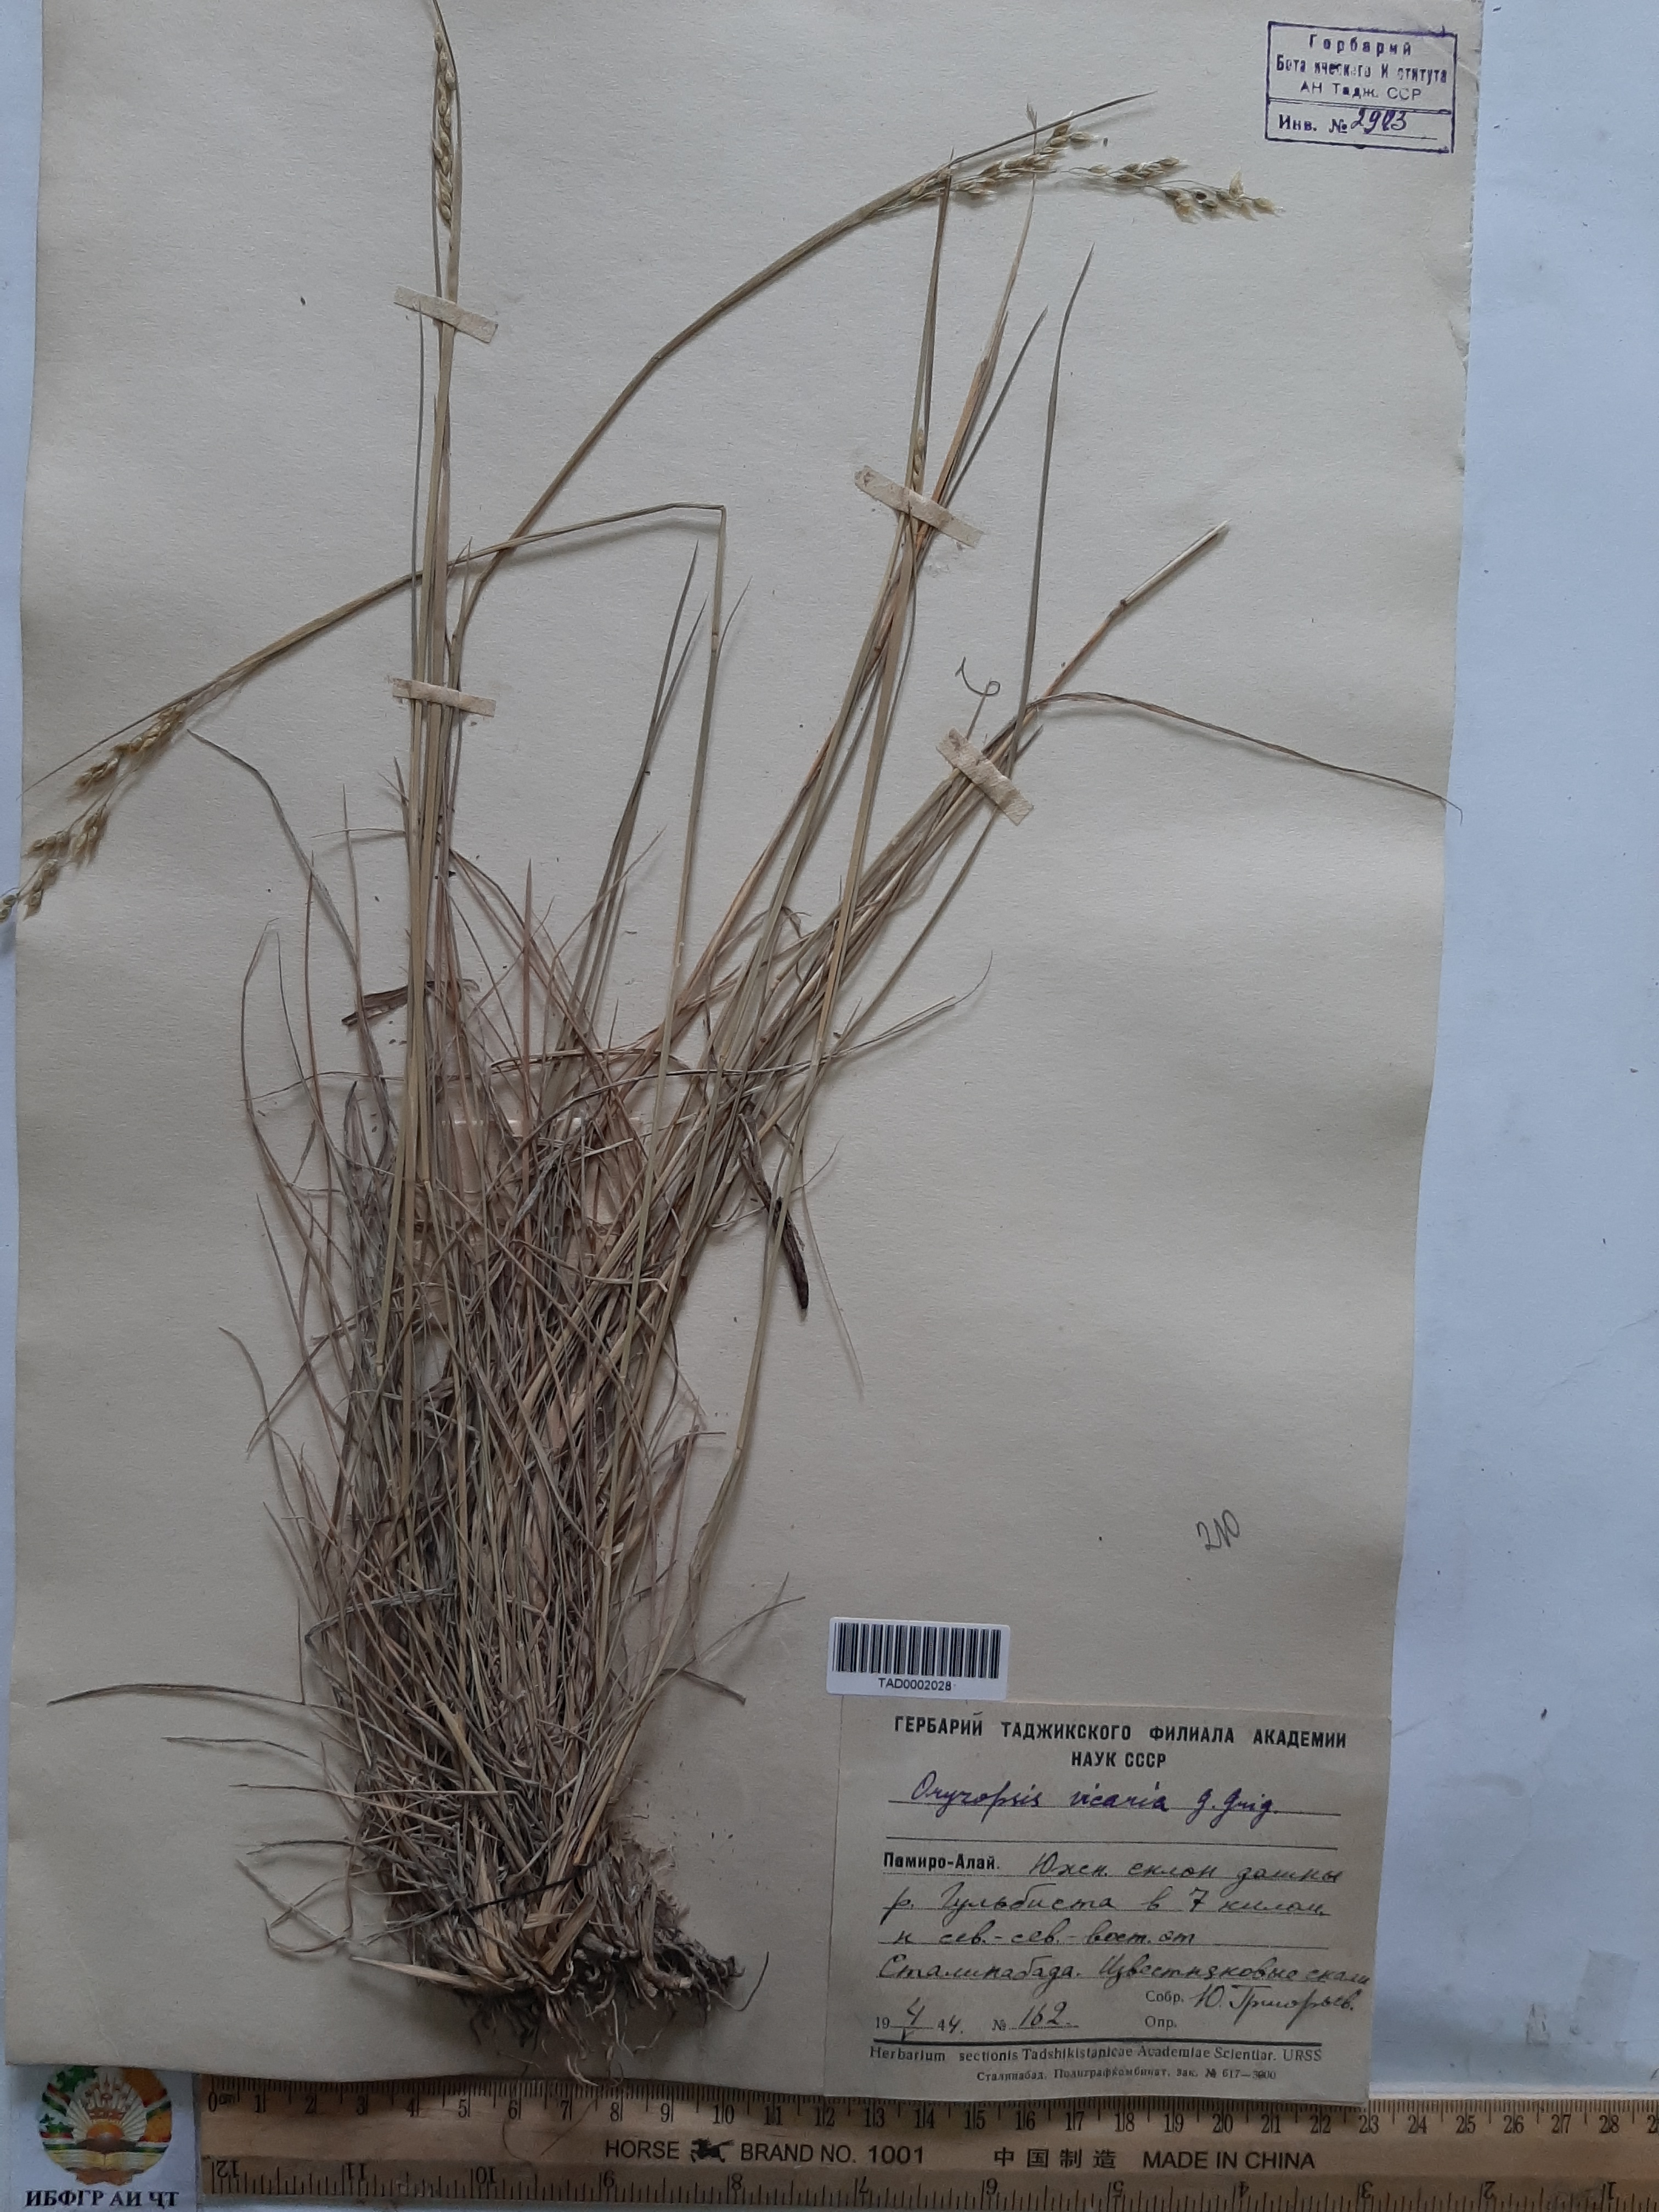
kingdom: Plantae
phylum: Tracheophyta
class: Liliopsida
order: Poales
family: Poaceae
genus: Piptatherum
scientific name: Piptatherum microcarpum
